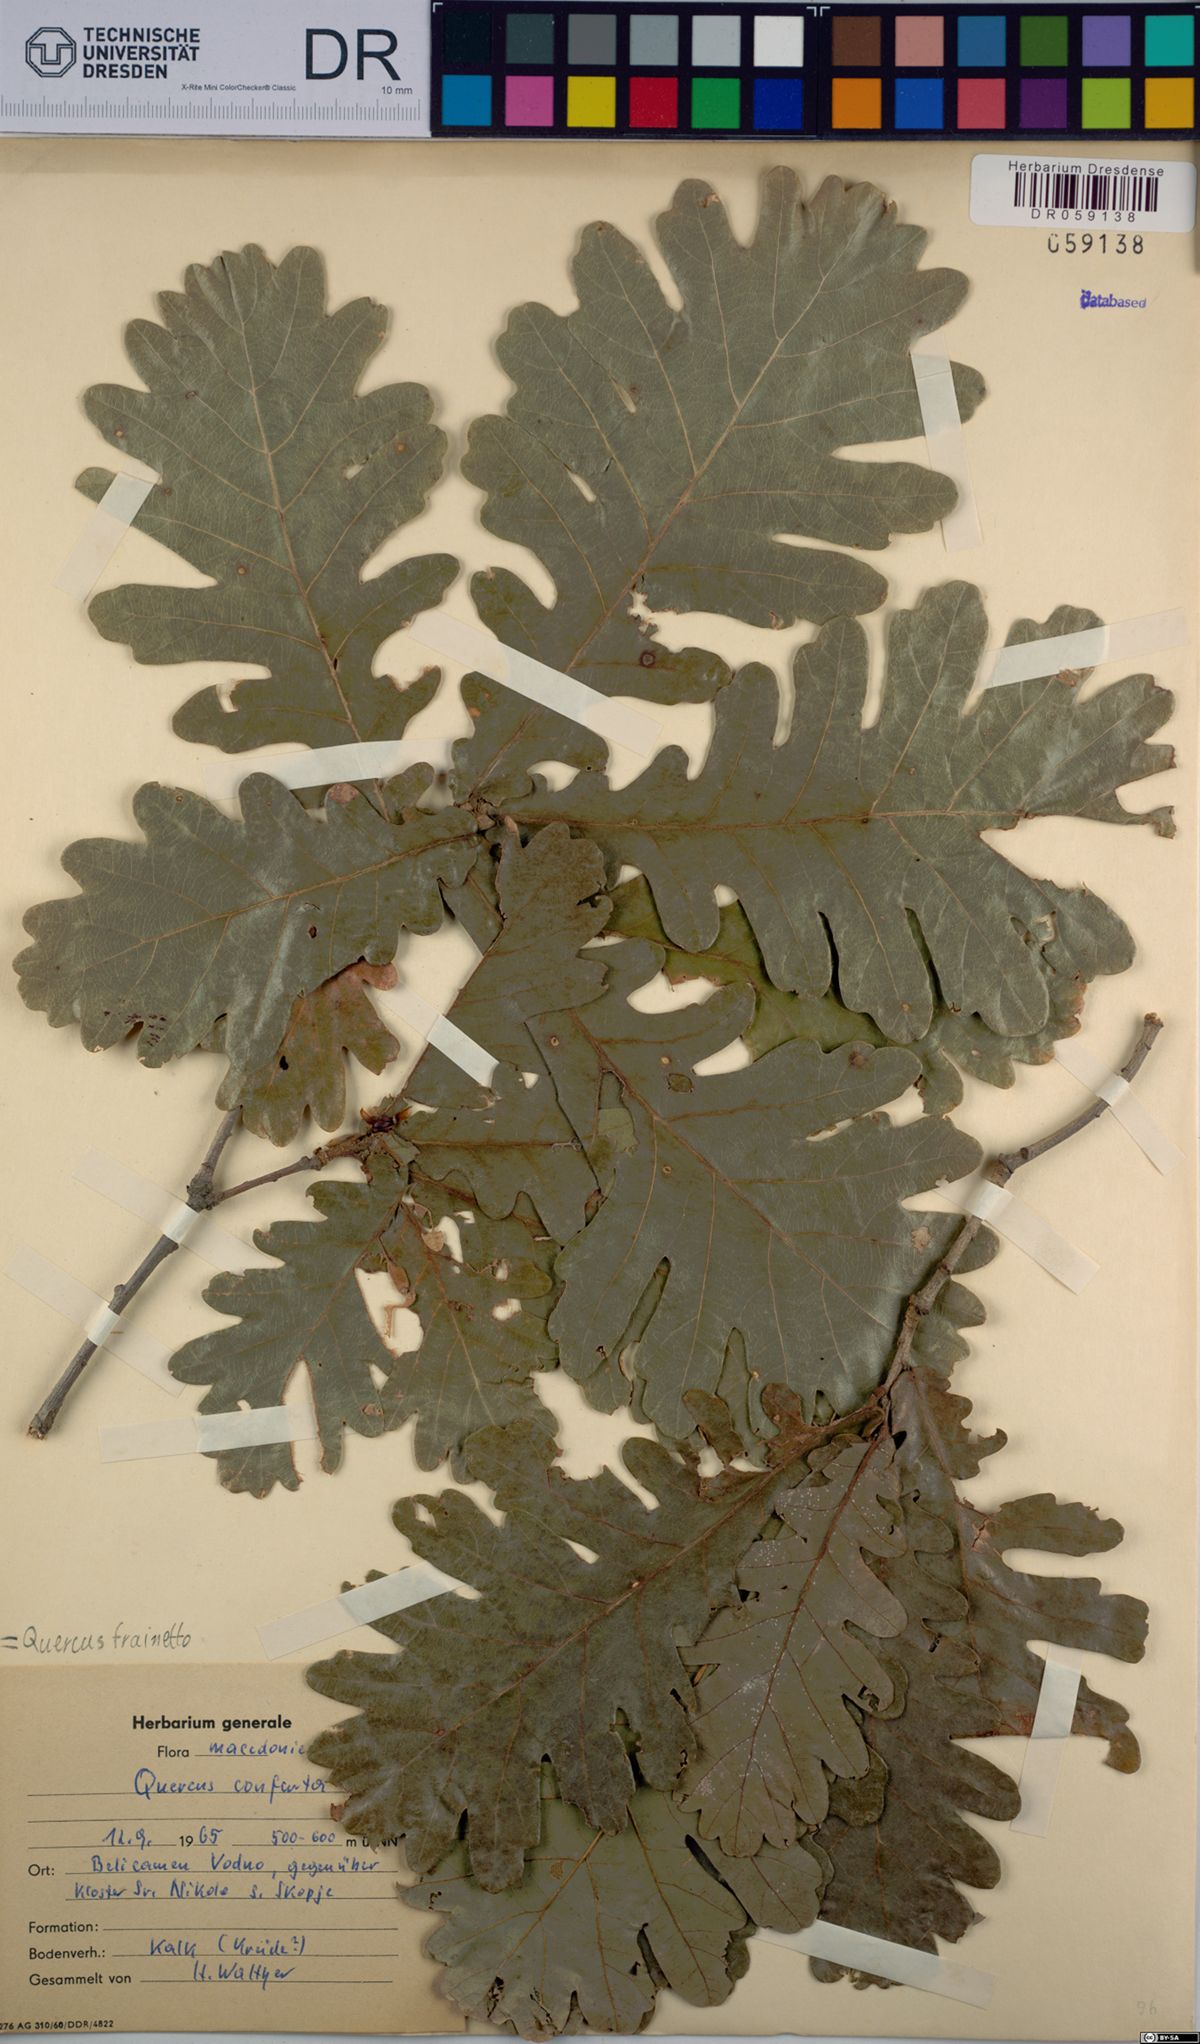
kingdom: Plantae
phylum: Tracheophyta
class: Magnoliopsida
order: Fagales
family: Fagaceae
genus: Quercus
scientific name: Quercus conferta
